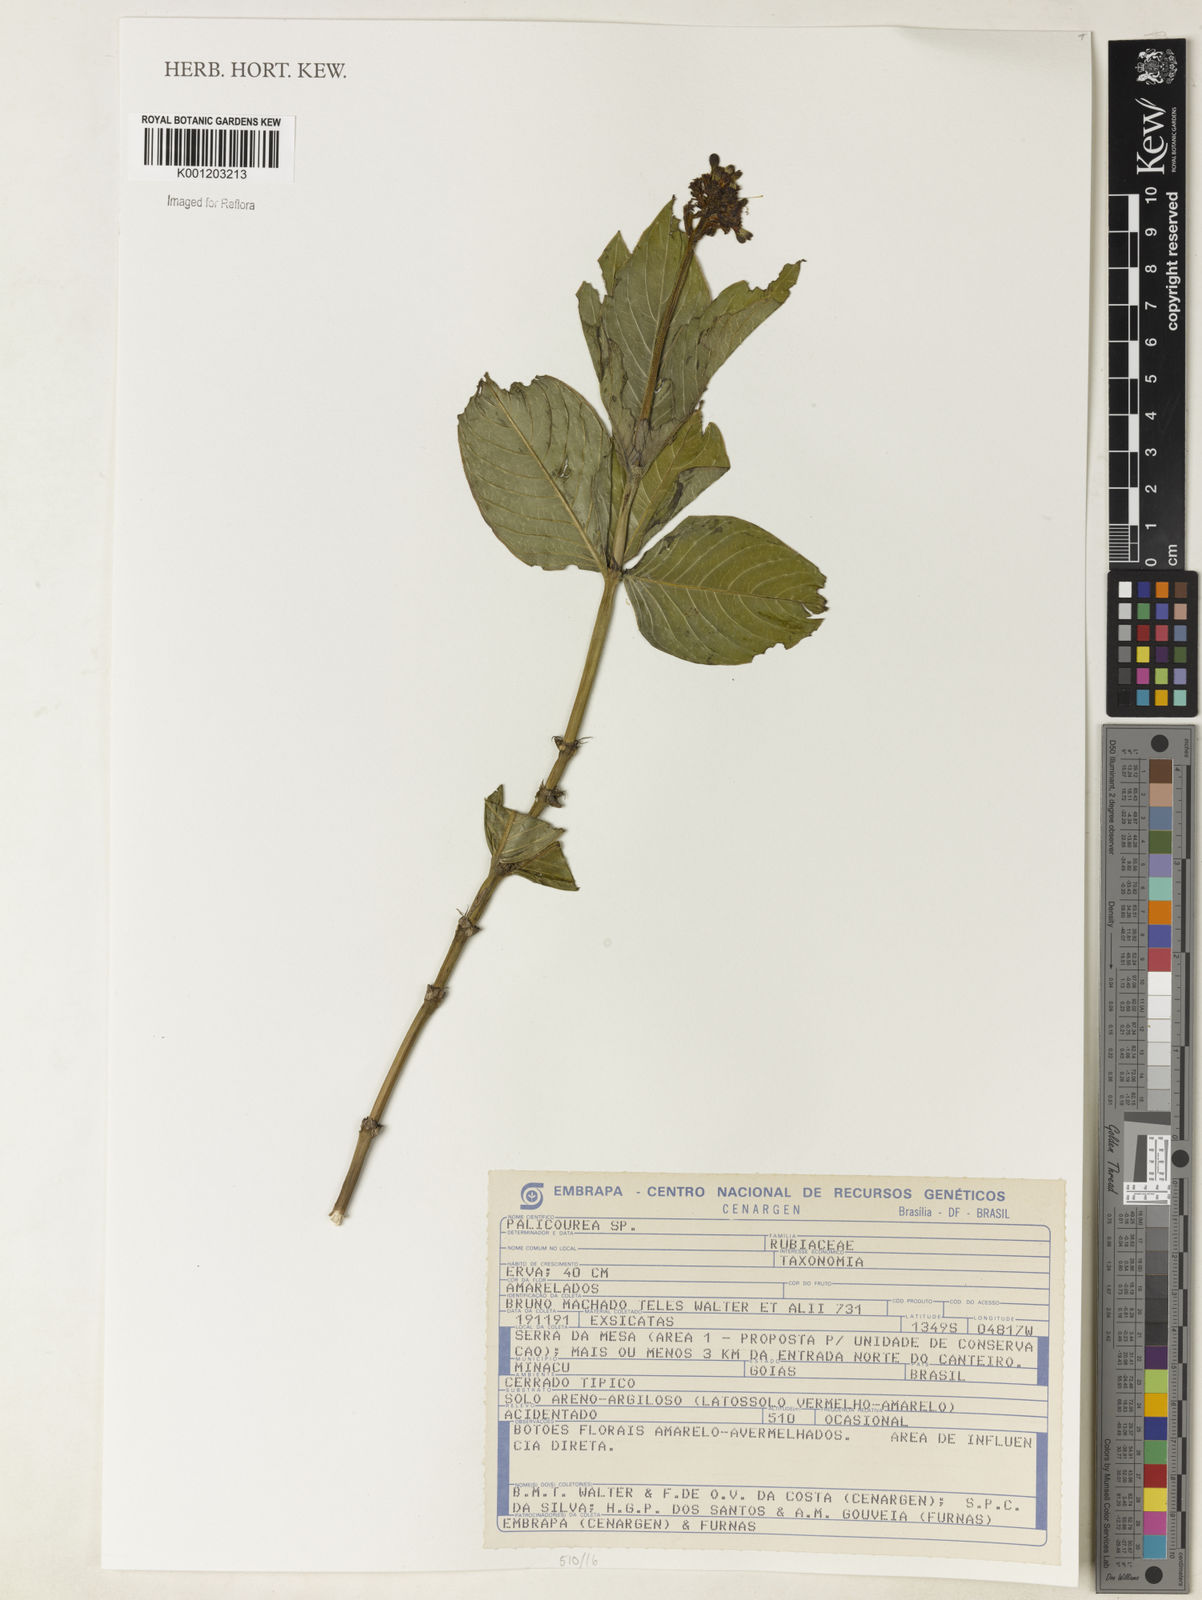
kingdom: Plantae
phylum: Tracheophyta
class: Magnoliopsida
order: Gentianales
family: Rubiaceae
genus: Palicourea
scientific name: Palicourea
